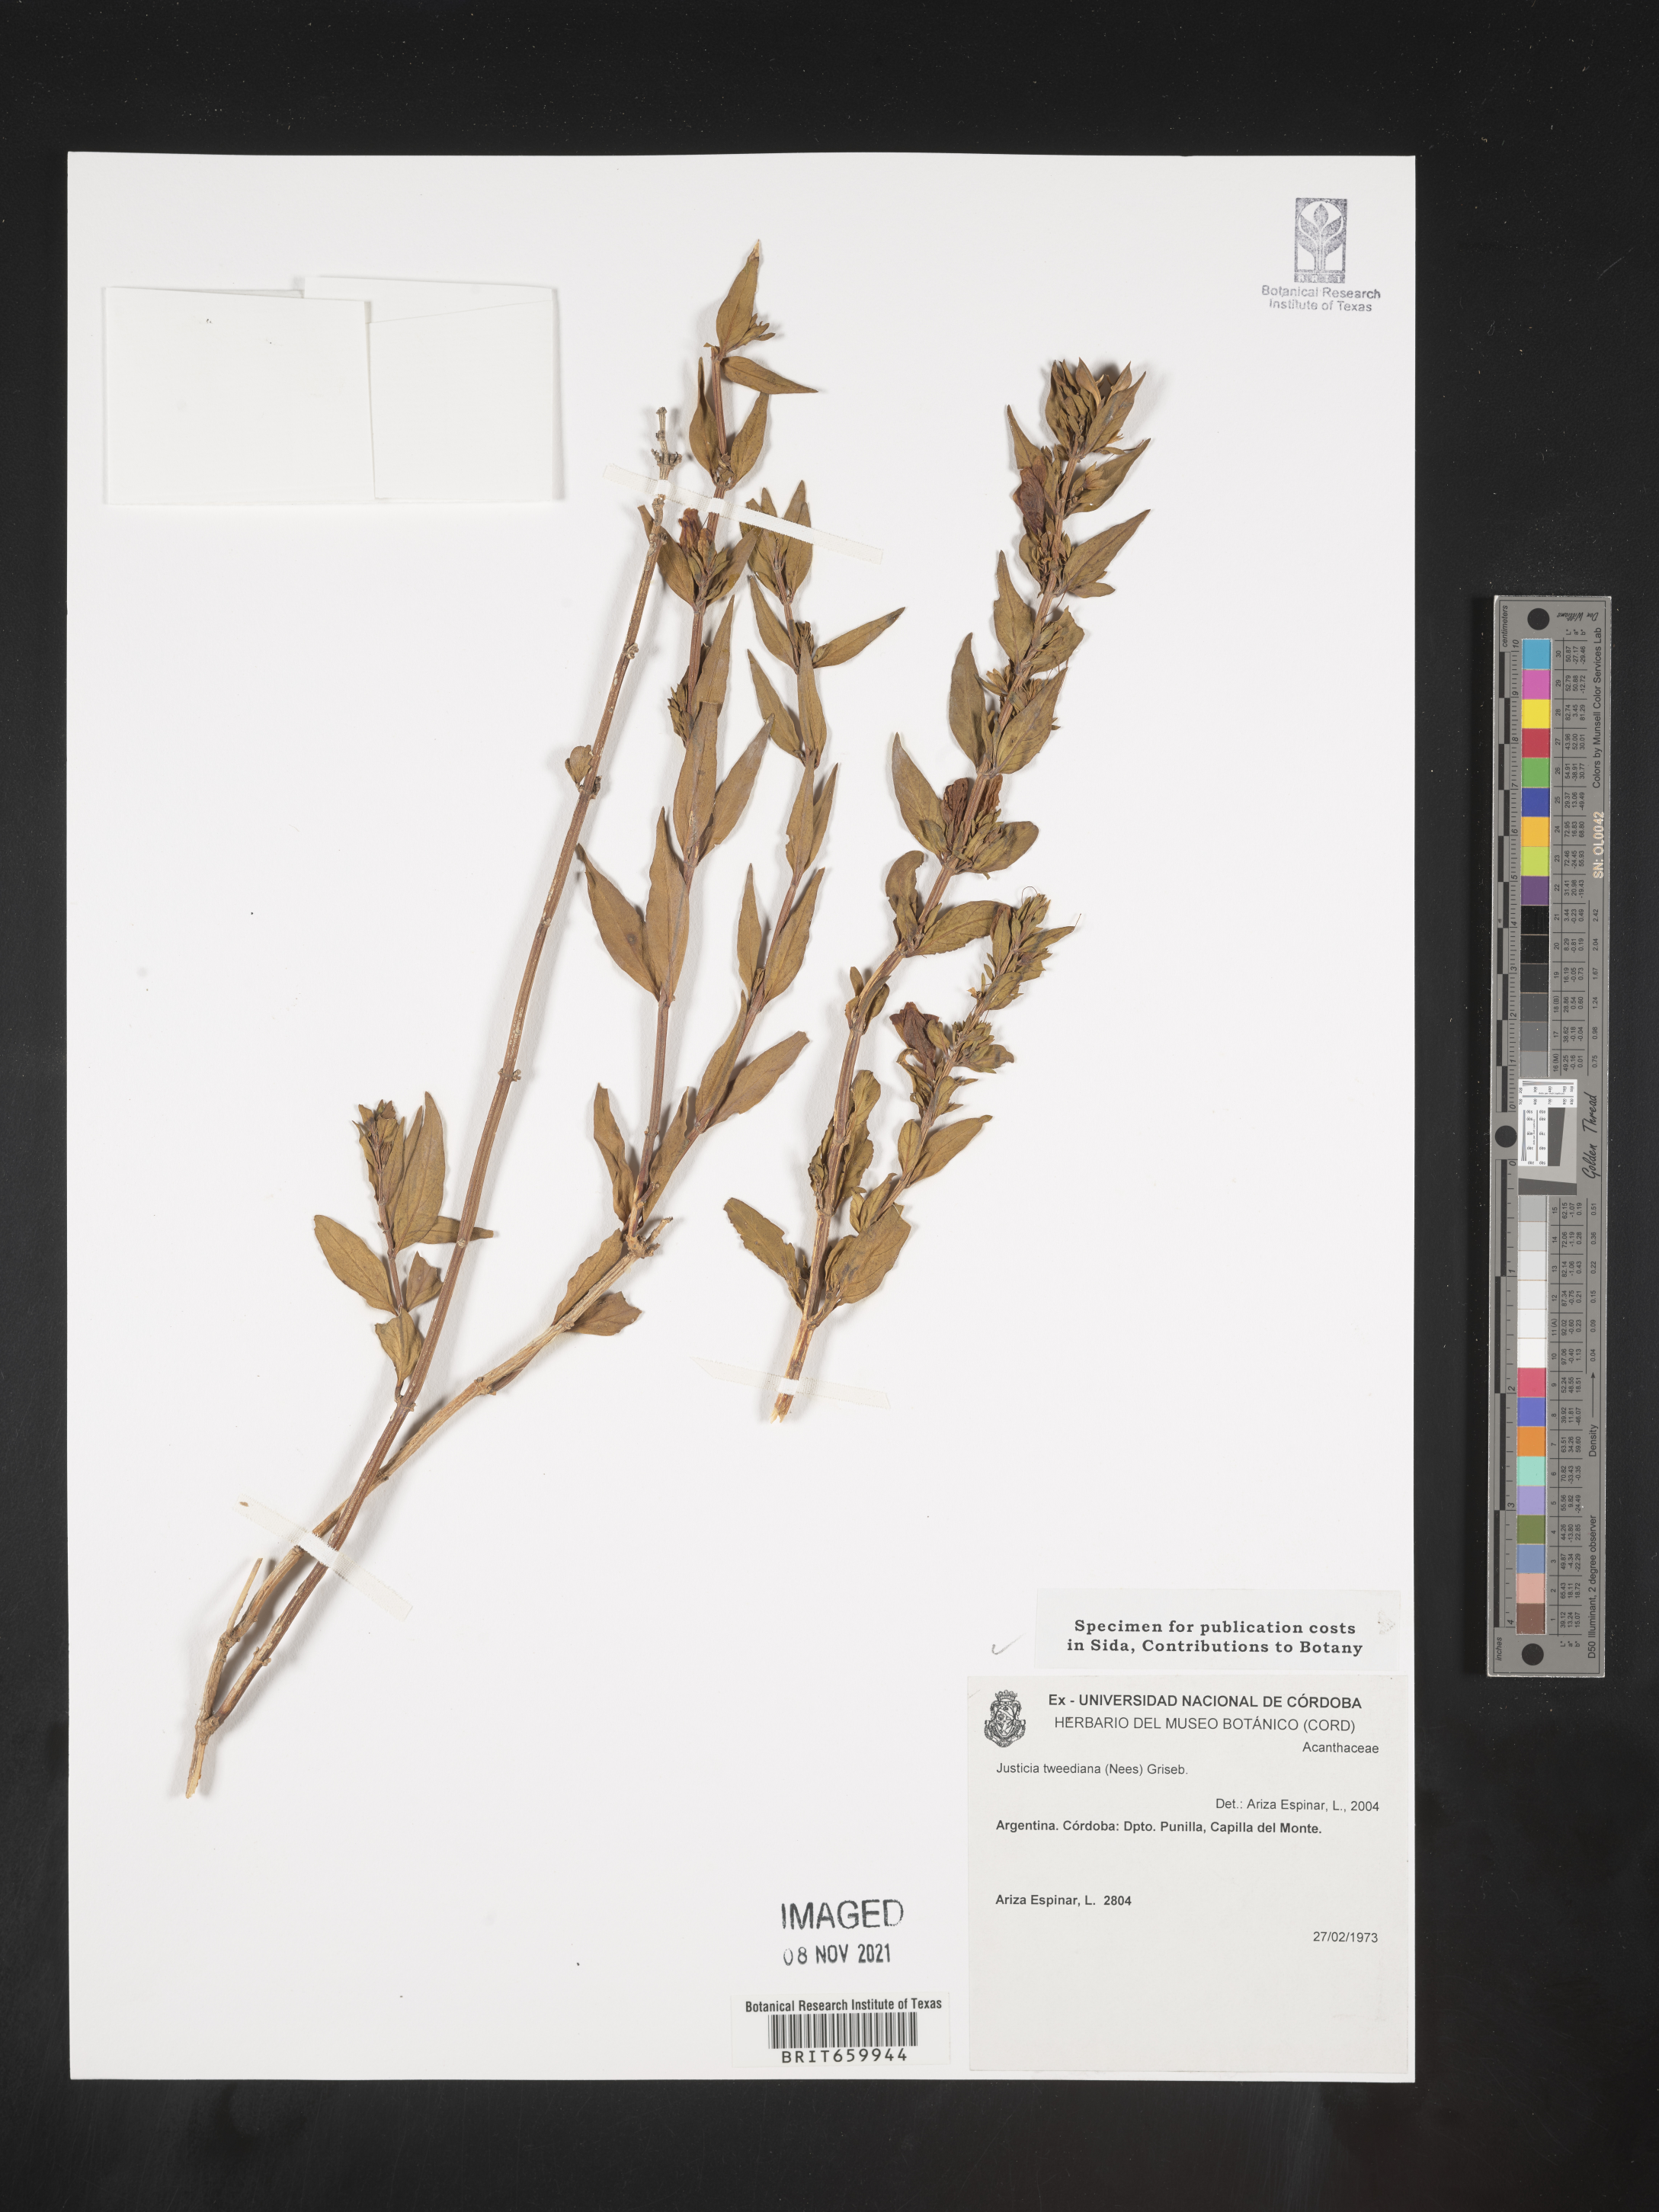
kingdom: Plantae
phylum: Tracheophyta
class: Magnoliopsida
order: Lamiales
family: Acanthaceae
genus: Justicia
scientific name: Justicia tweediana
